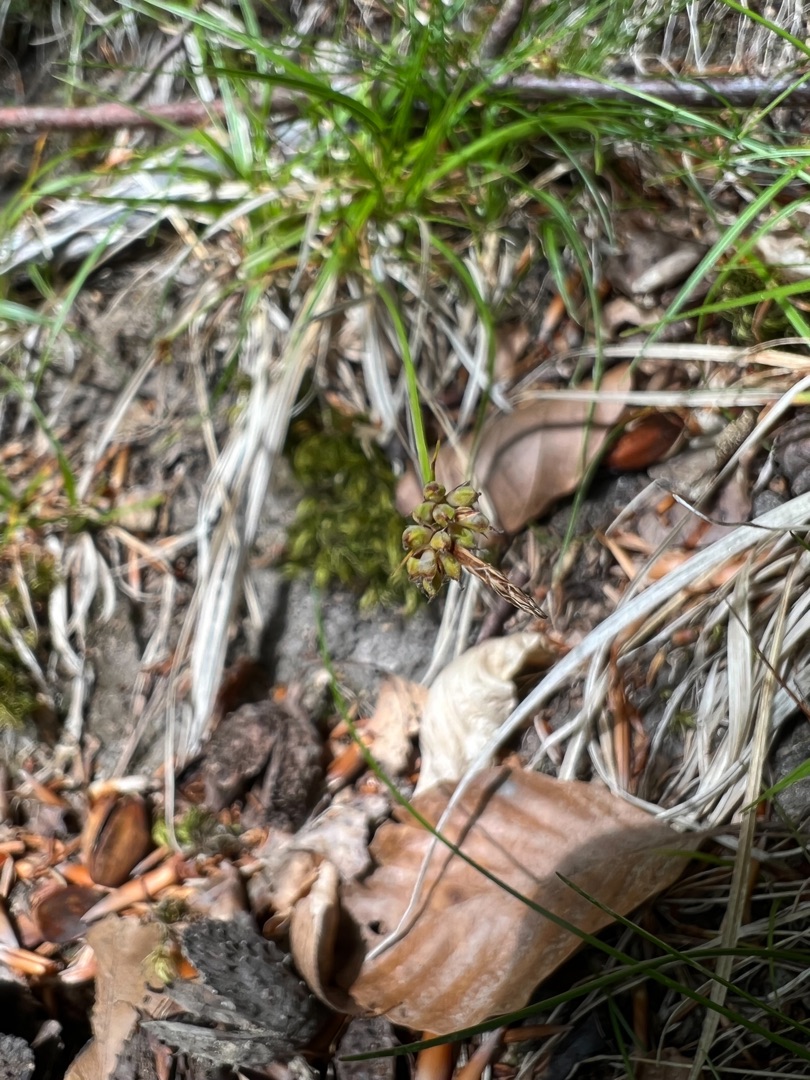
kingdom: Plantae
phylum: Tracheophyta
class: Liliopsida
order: Poales
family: Cyperaceae
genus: Carex
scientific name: Carex pilulifera
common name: Pille-star
